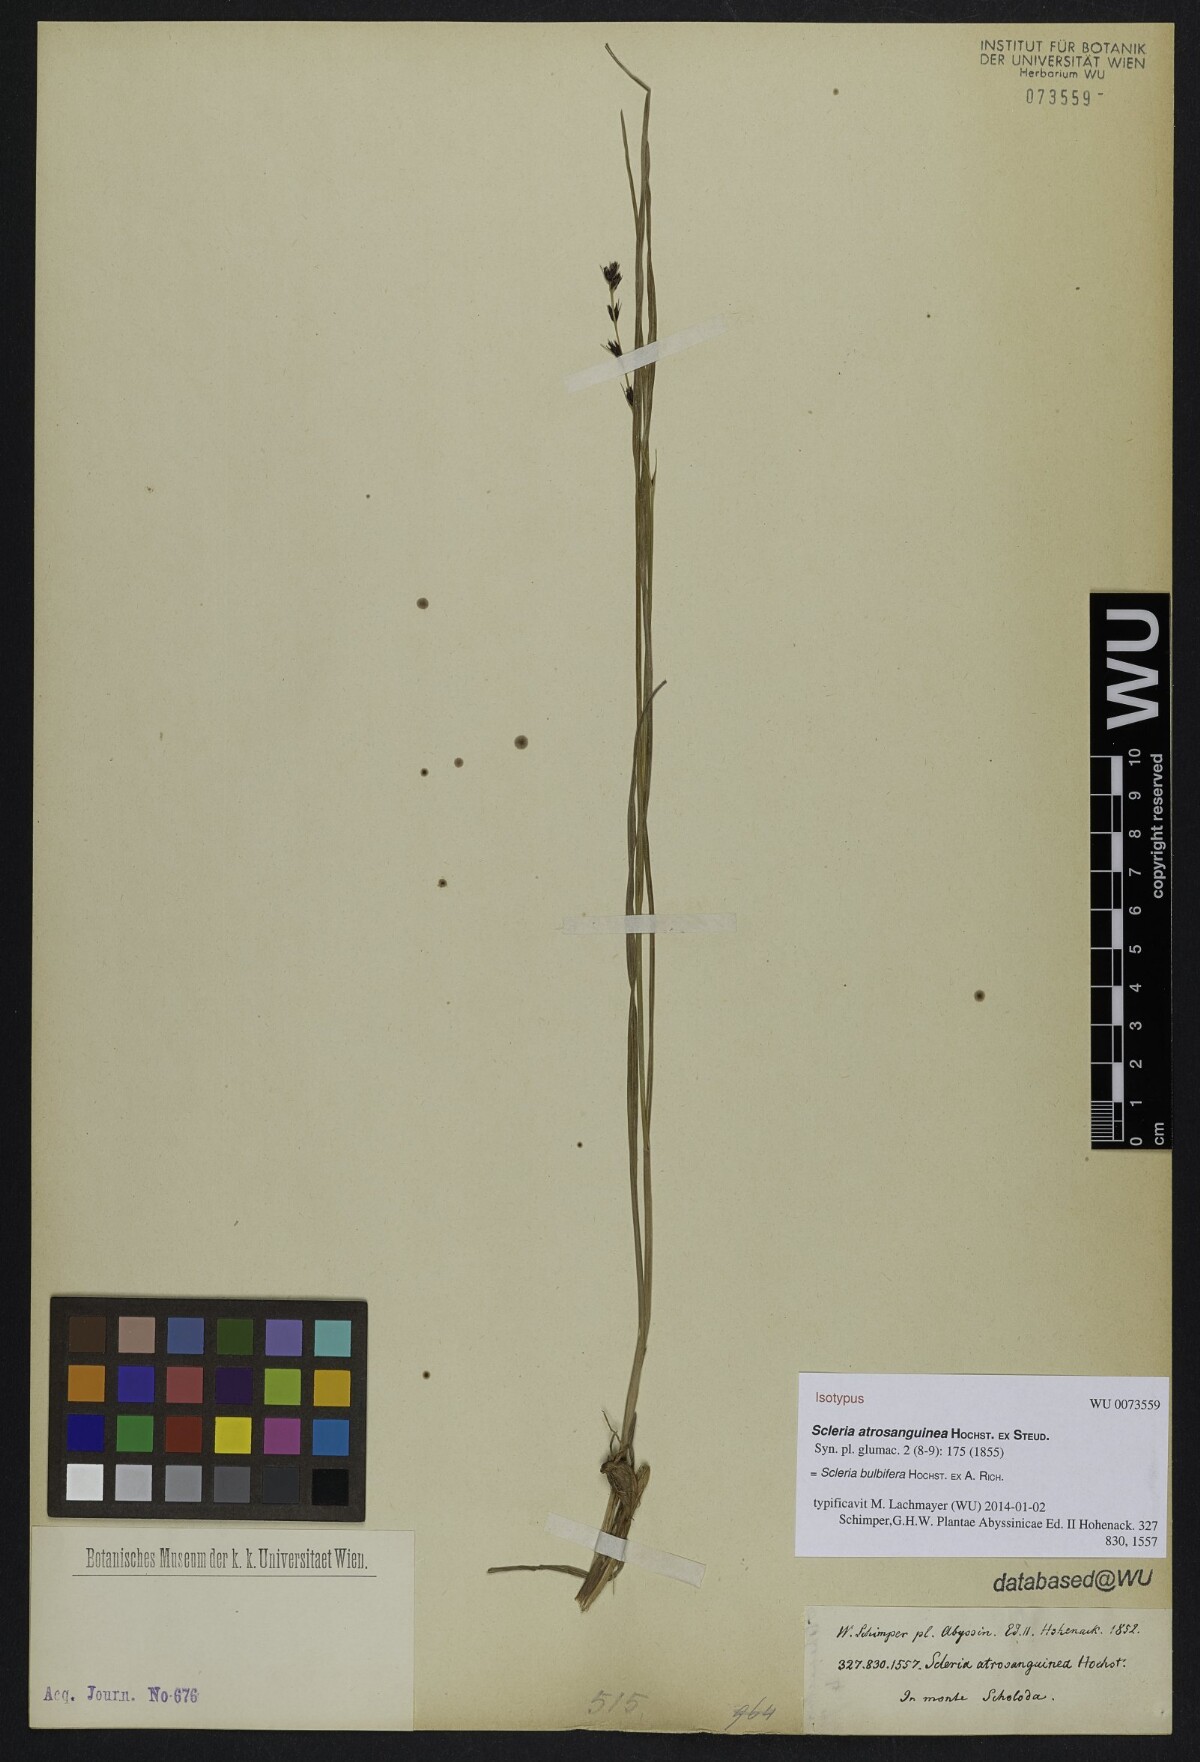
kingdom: Plantae
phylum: Tracheophyta
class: Liliopsida
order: Poales
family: Cyperaceae
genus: Scleria
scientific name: Scleria bulbifera
